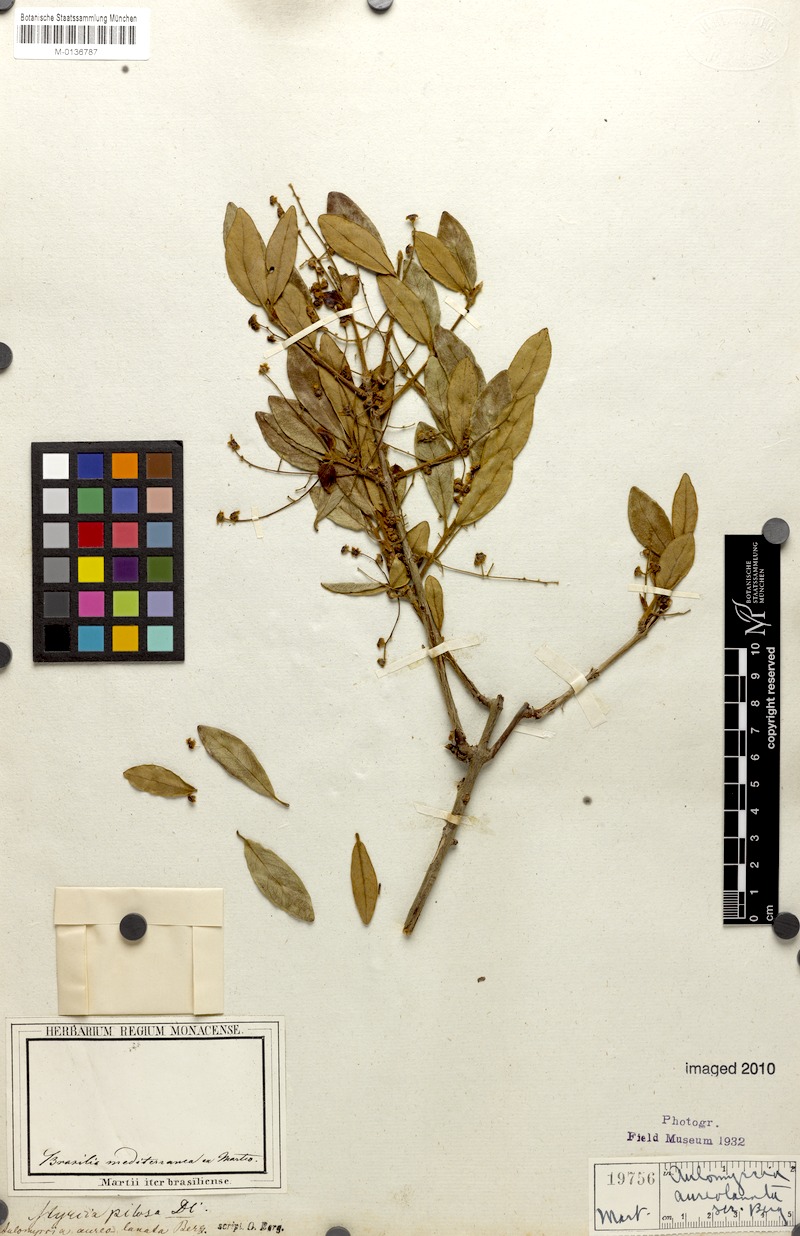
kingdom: Plantae
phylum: Tracheophyta
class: Magnoliopsida
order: Myrtales
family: Myrtaceae
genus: Myrcia
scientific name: Myrcia tomentosa
